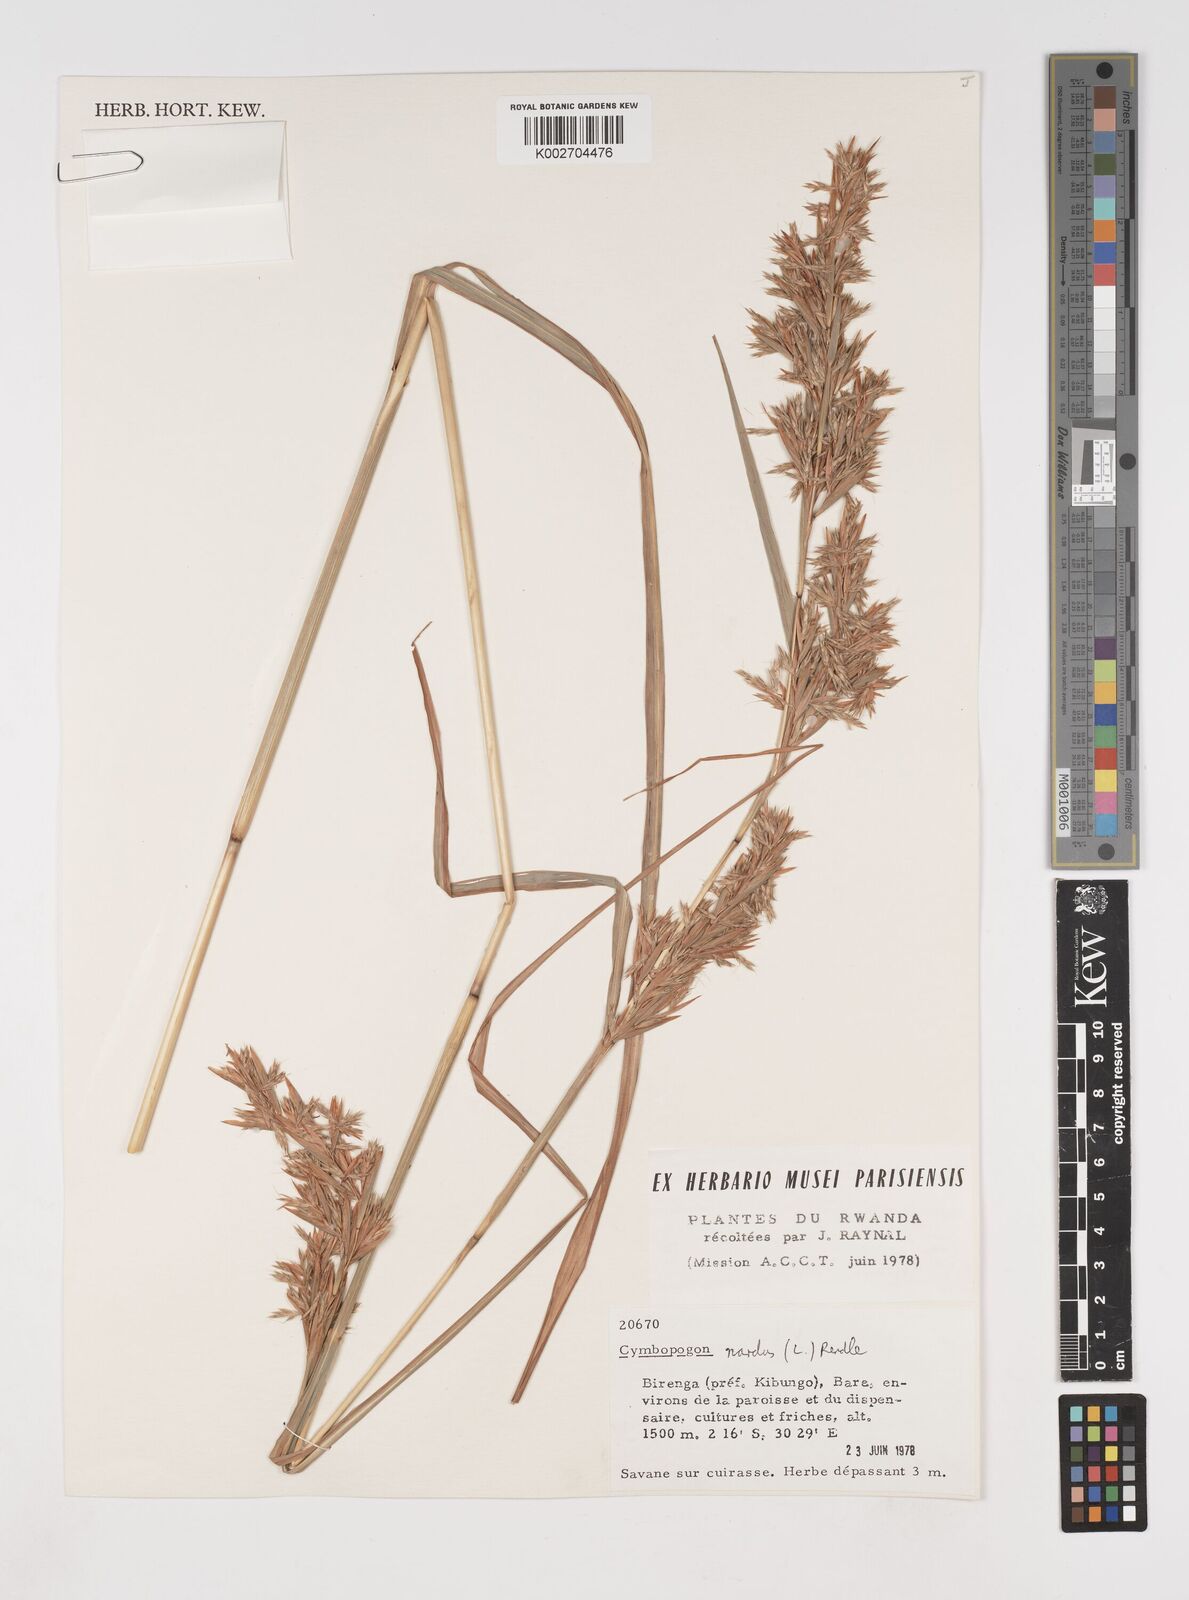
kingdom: Plantae
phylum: Tracheophyta
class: Liliopsida
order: Poales
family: Poaceae
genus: Cymbopogon
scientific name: Cymbopogon nardus
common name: Giant turpentine grass
